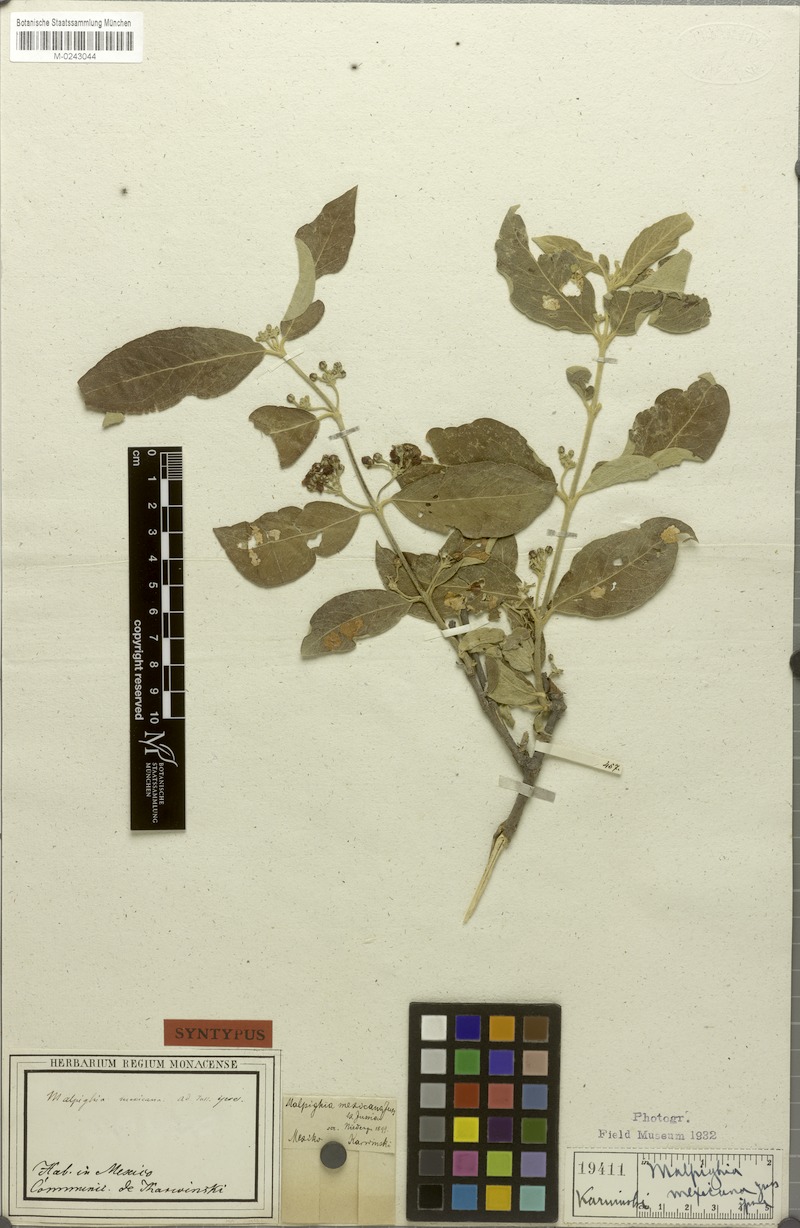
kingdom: Plantae
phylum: Tracheophyta
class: Magnoliopsida
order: Malpighiales
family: Malpighiaceae
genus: Malpighia
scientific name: Malpighia mexicana
